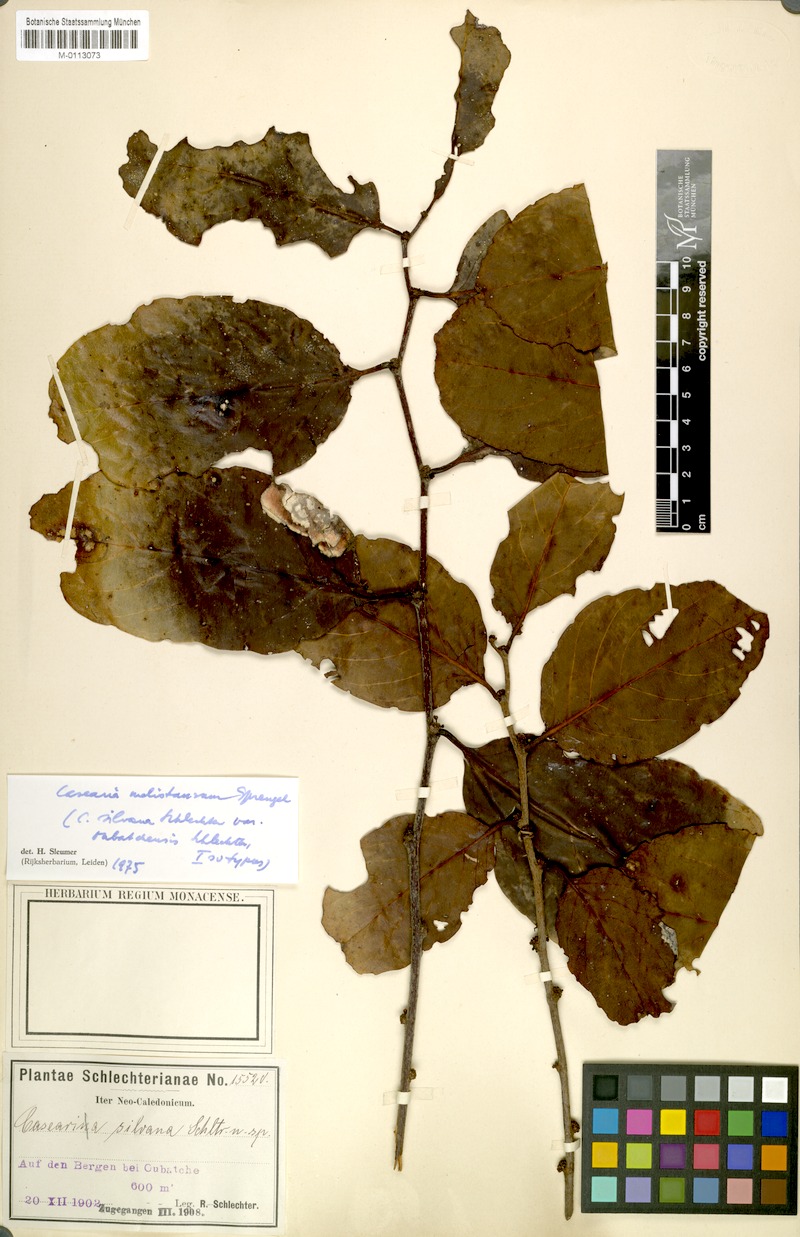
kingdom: Plantae
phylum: Tracheophyta
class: Magnoliopsida
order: Malpighiales
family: Salicaceae
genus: Casearia
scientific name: Casearia silvana
